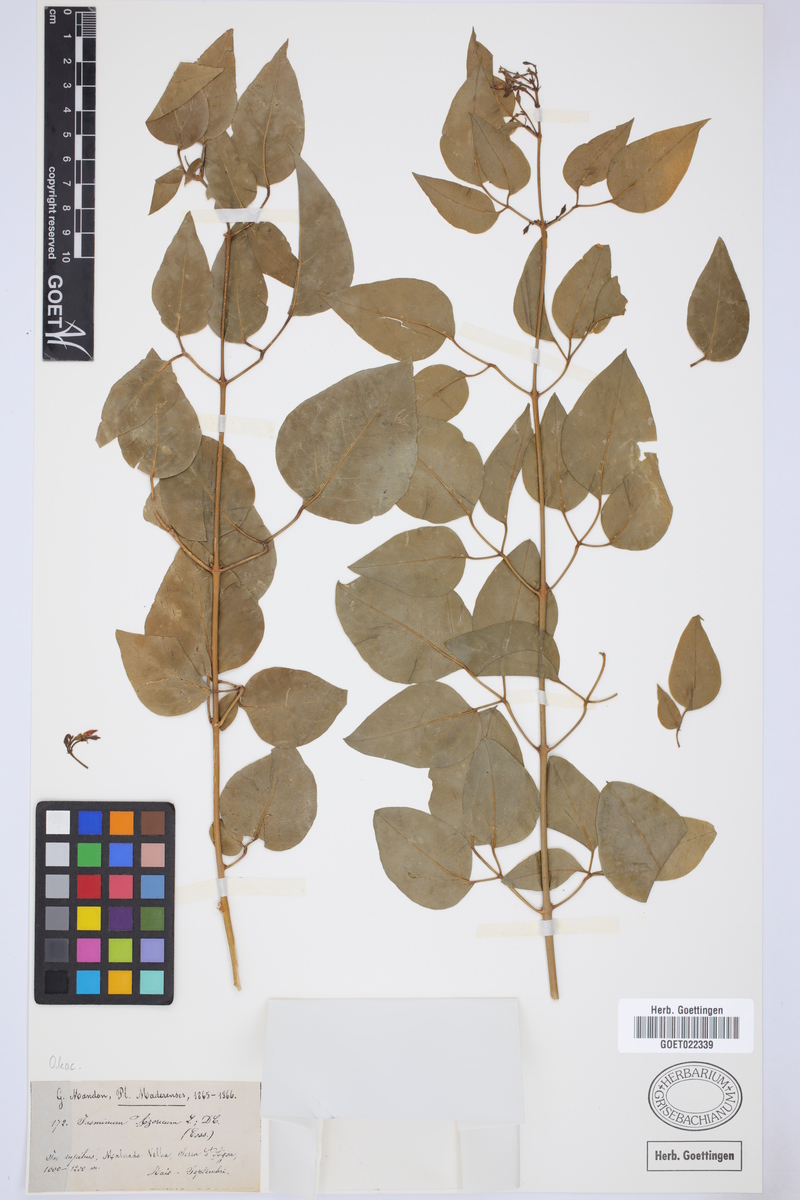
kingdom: Plantae
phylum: Tracheophyta
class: Magnoliopsida
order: Lamiales
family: Oleaceae
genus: Jasminum
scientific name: Jasminum azoricum
